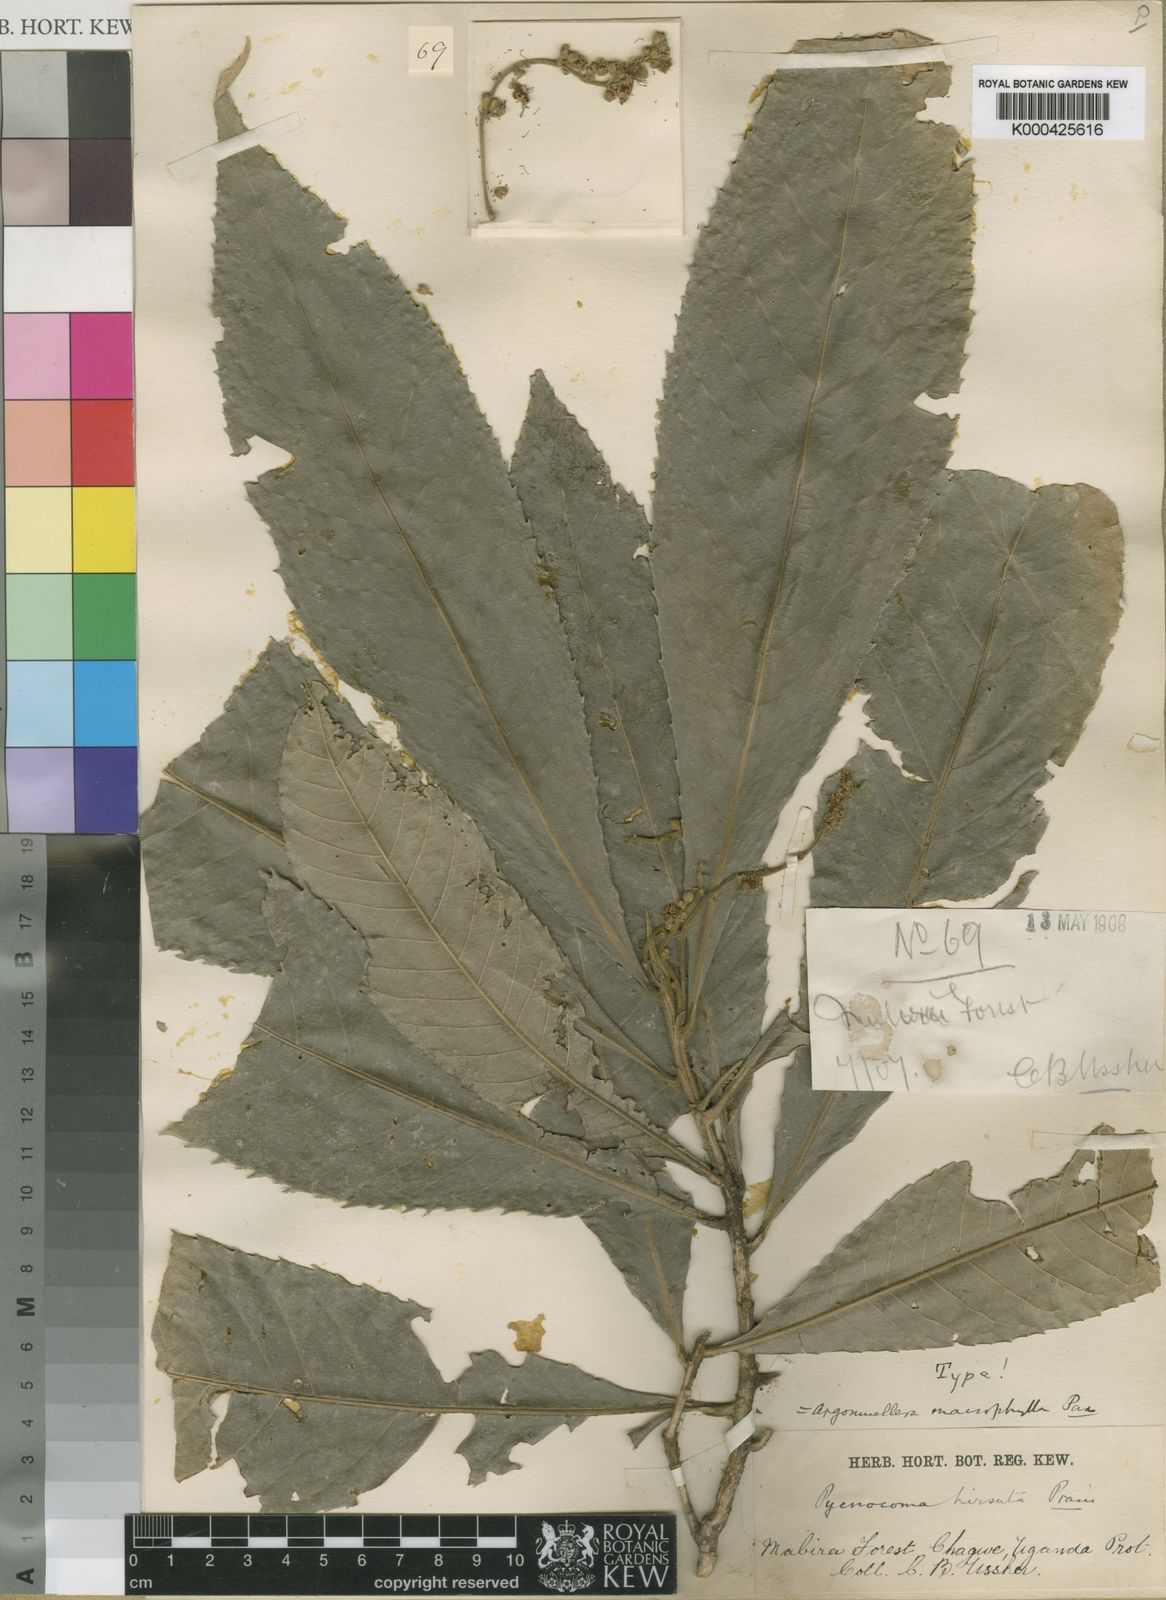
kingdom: Plantae
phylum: Tracheophyta
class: Magnoliopsida
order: Malpighiales
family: Euphorbiaceae
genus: Argomuellera
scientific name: Argomuellera macrophylla
